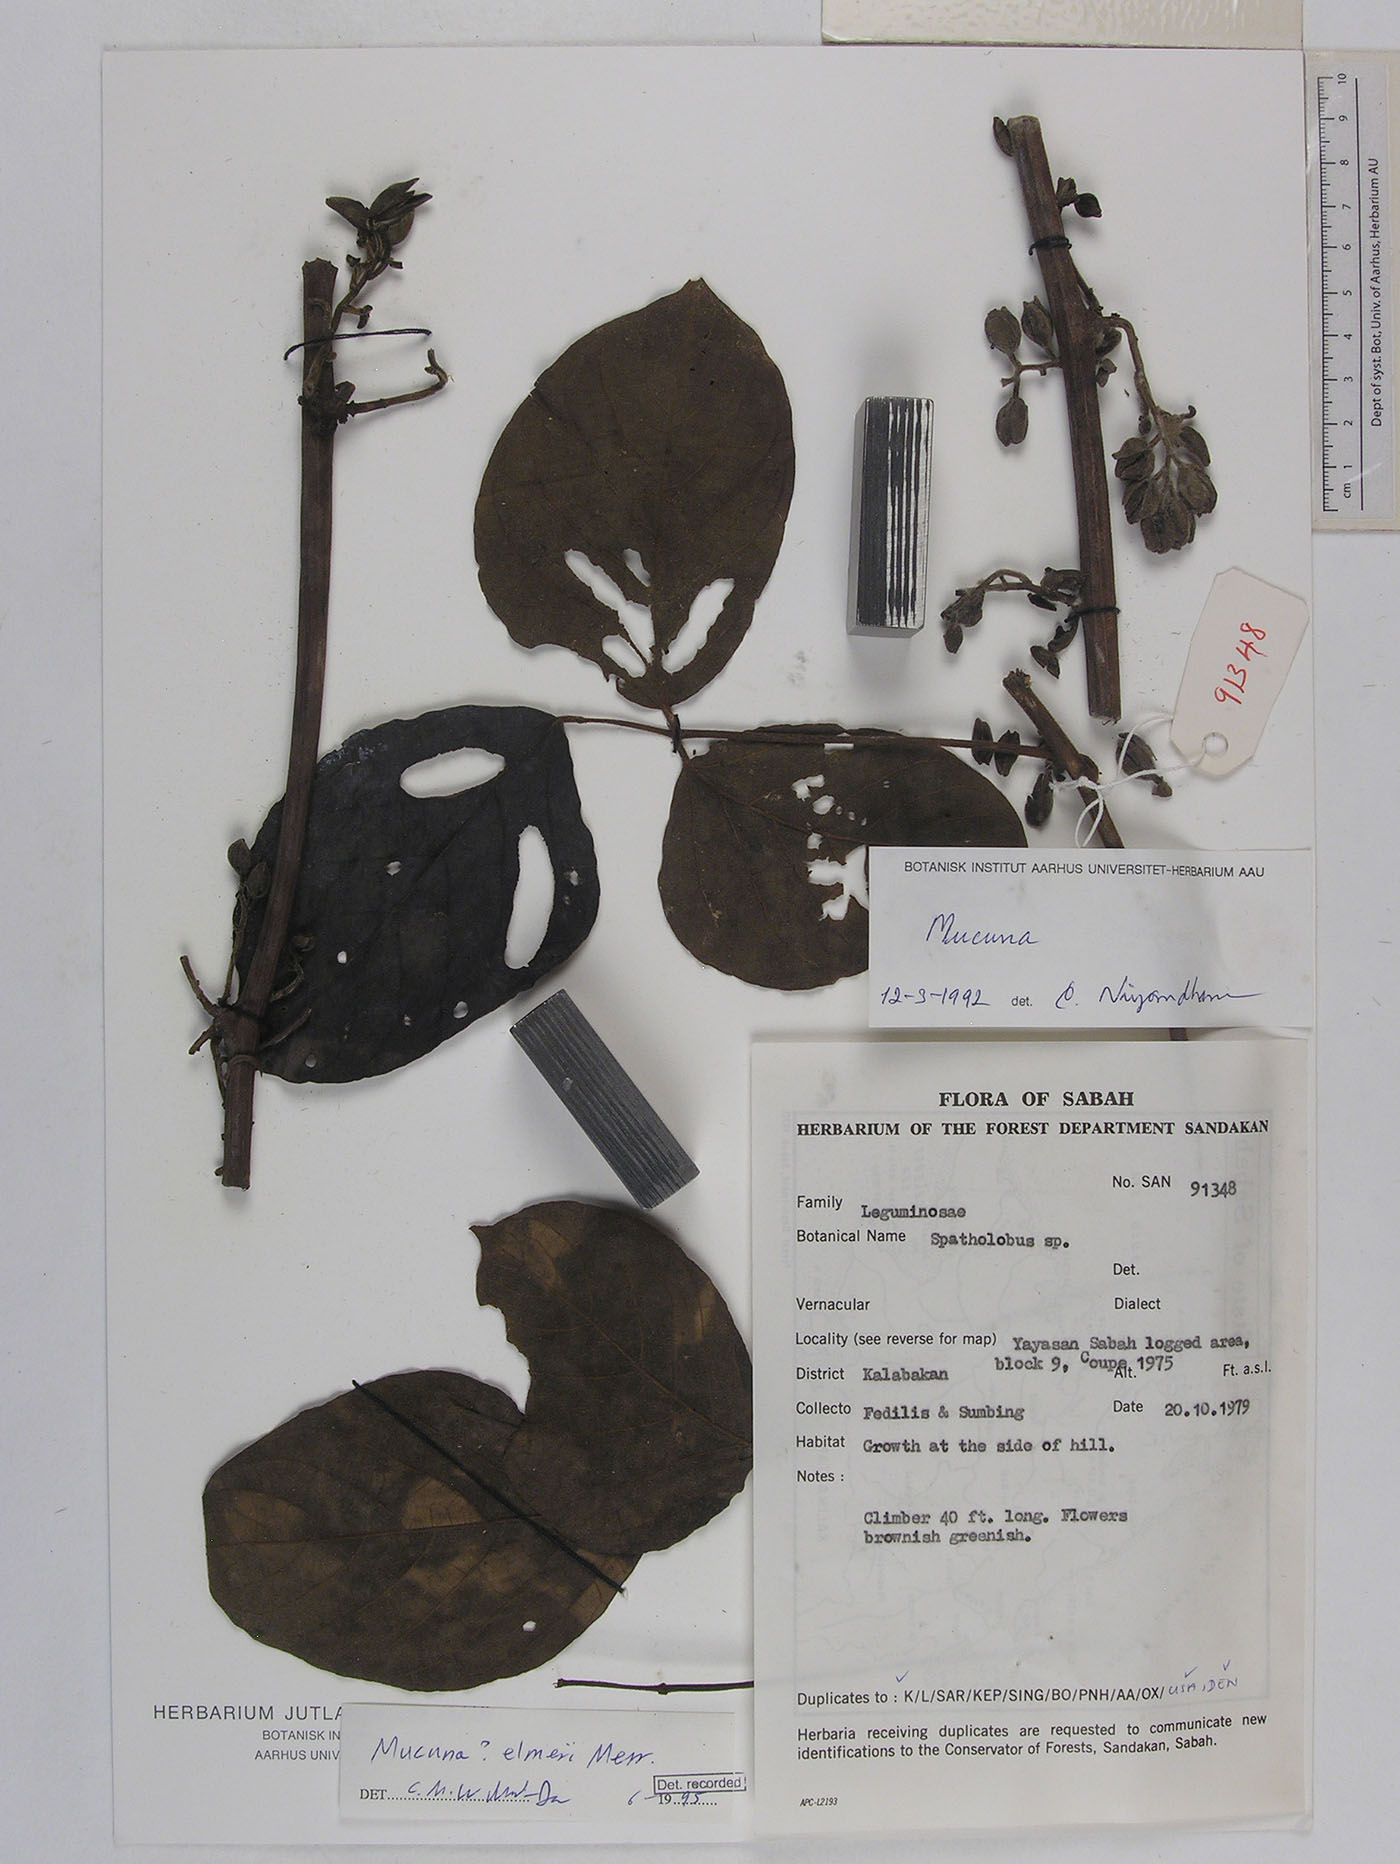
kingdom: Plantae
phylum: Tracheophyta
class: Magnoliopsida
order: Fabales
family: Fabaceae
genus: Mucuna
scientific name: Mucuna elmeri
